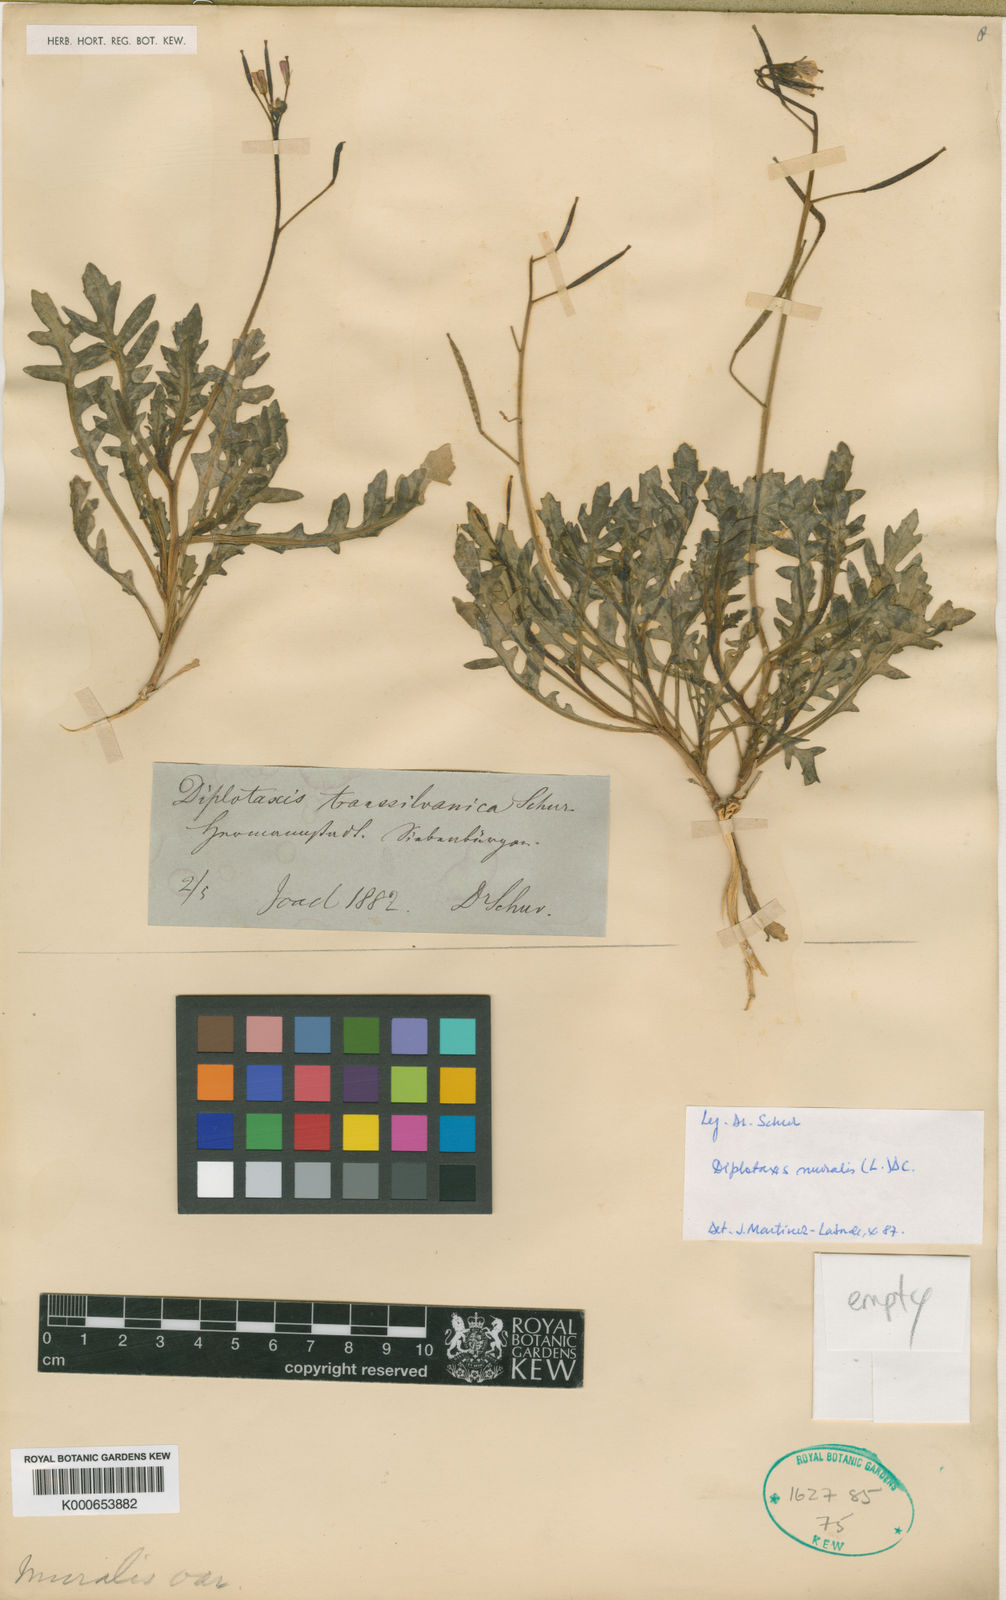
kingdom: Plantae
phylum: Tracheophyta
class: Magnoliopsida
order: Brassicales
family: Brassicaceae
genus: Diplotaxis
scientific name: Diplotaxis muralis
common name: Annual wall-rocket
